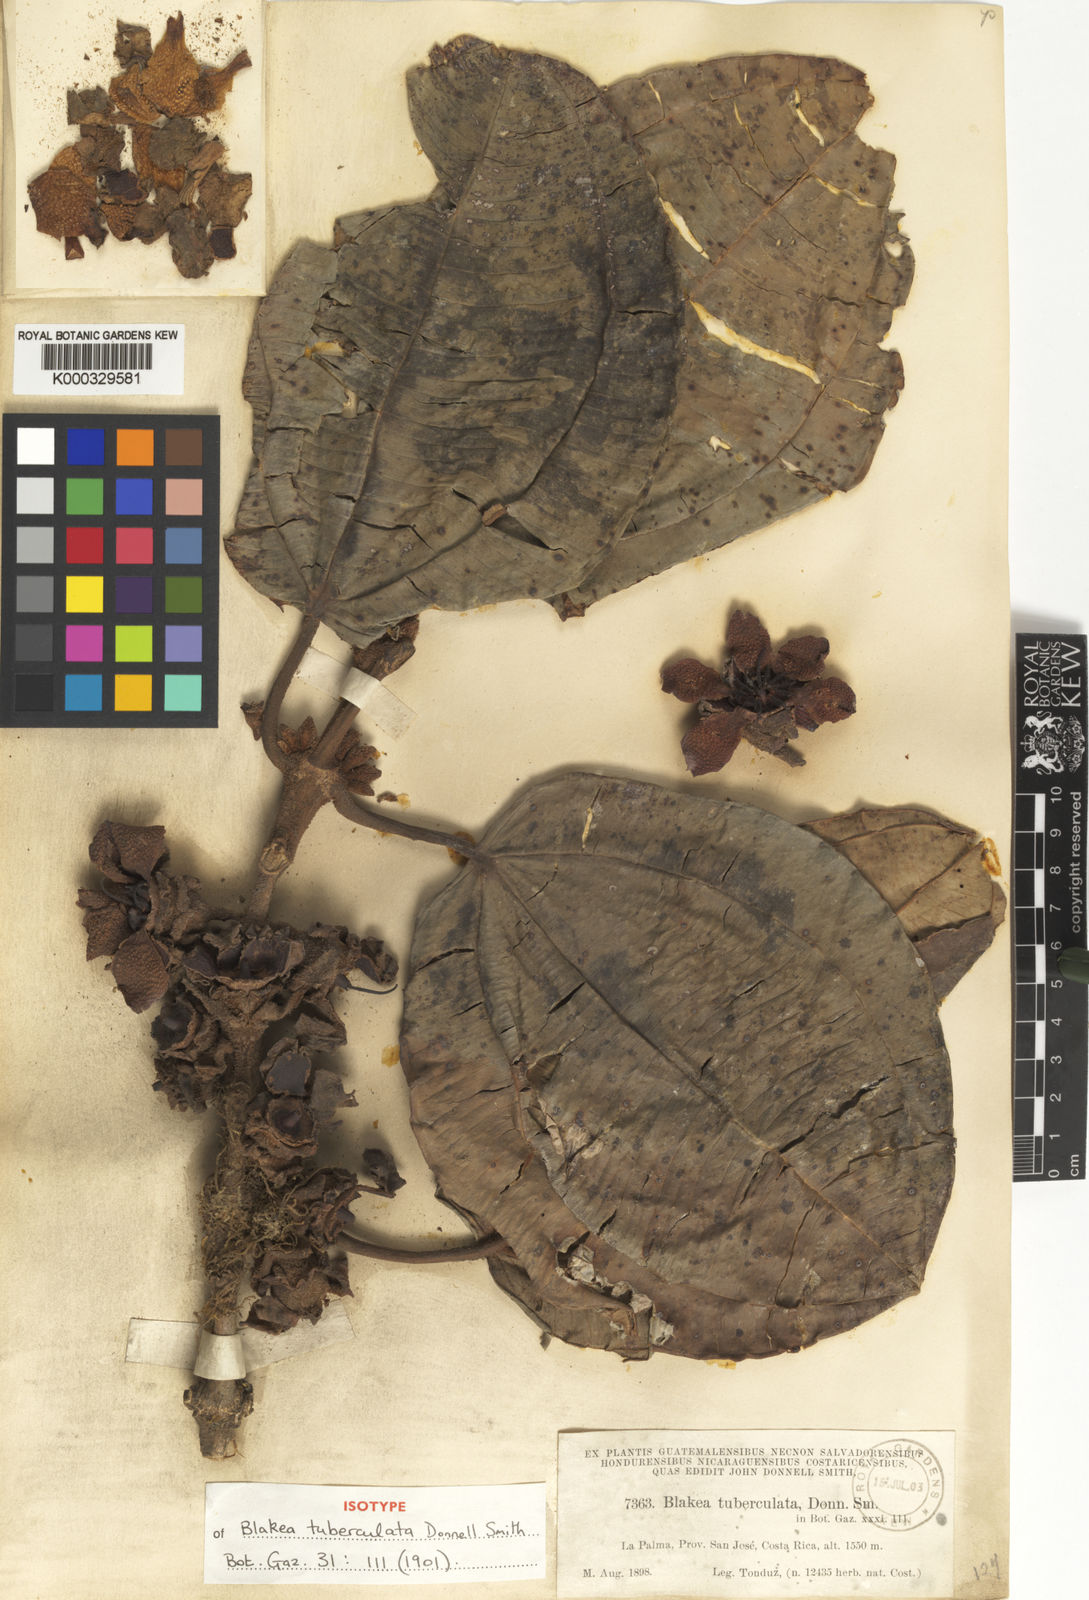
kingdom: Plantae
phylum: Tracheophyta
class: Magnoliopsida
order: Myrtales
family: Melastomataceae
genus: Blakea
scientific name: Blakea tuberculata
